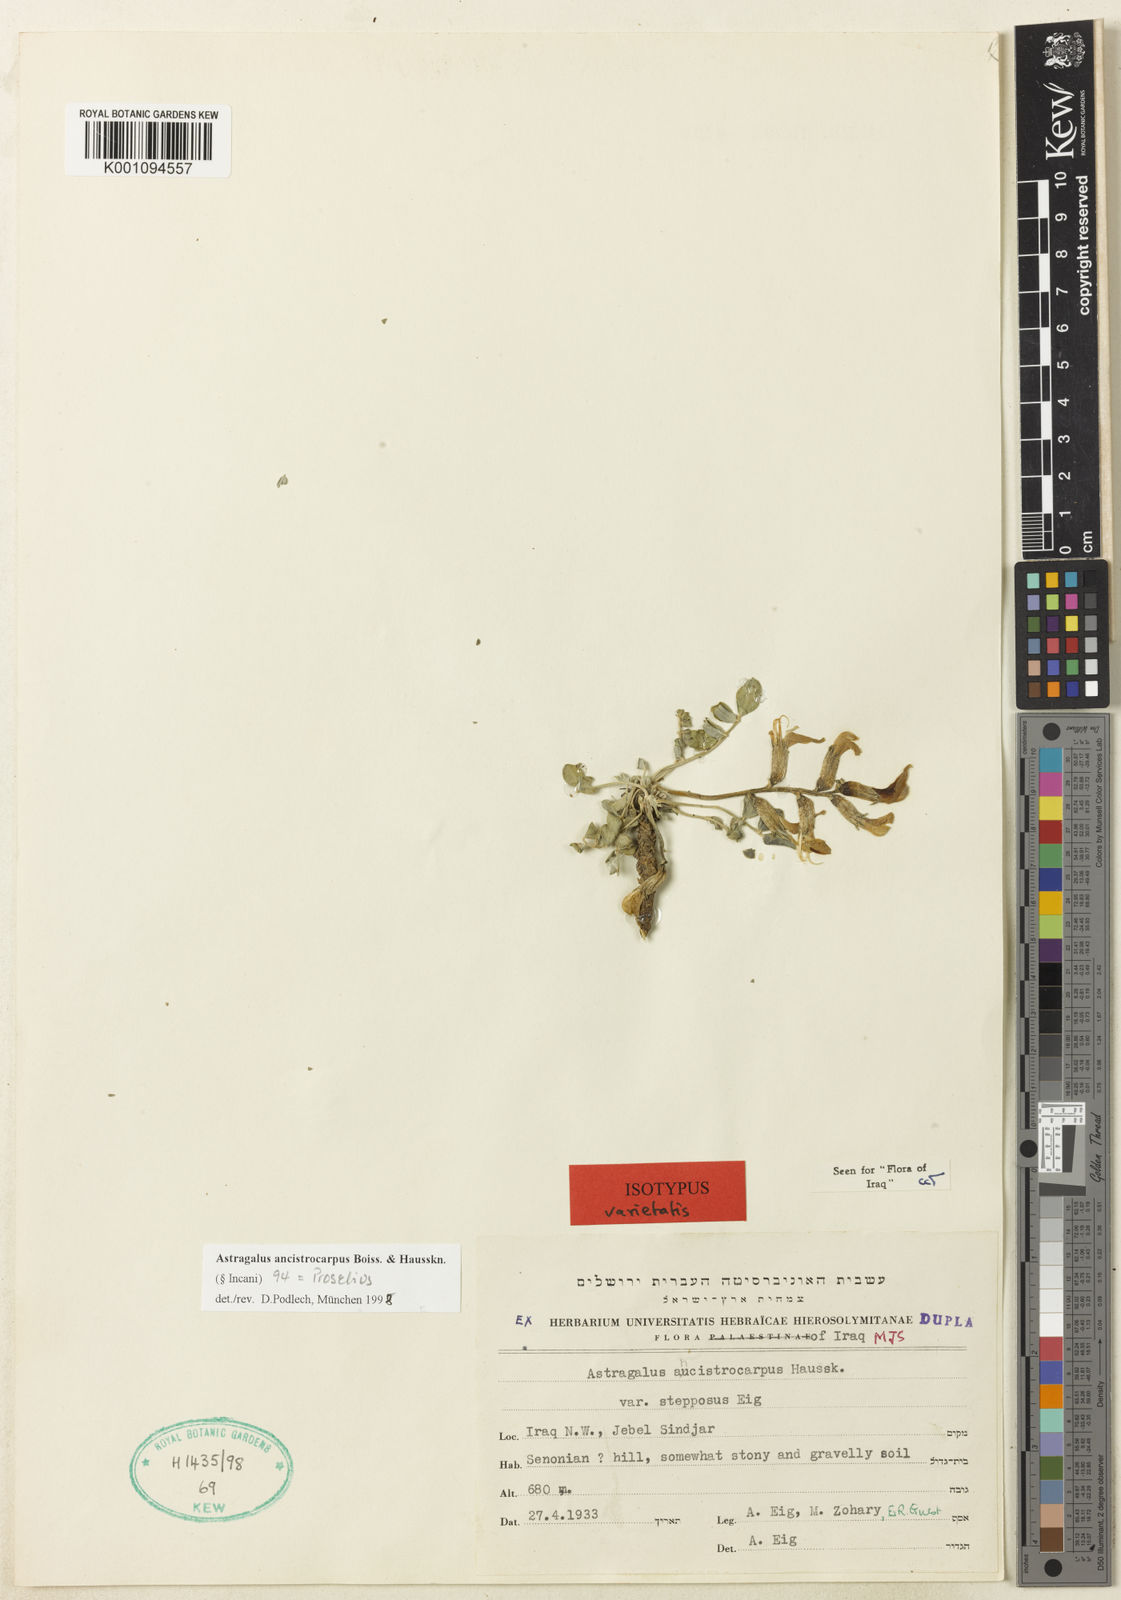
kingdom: Plantae
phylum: Tracheophyta
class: Magnoliopsida
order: Fabales
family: Fabaceae
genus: Astragalus
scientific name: Astragalus
